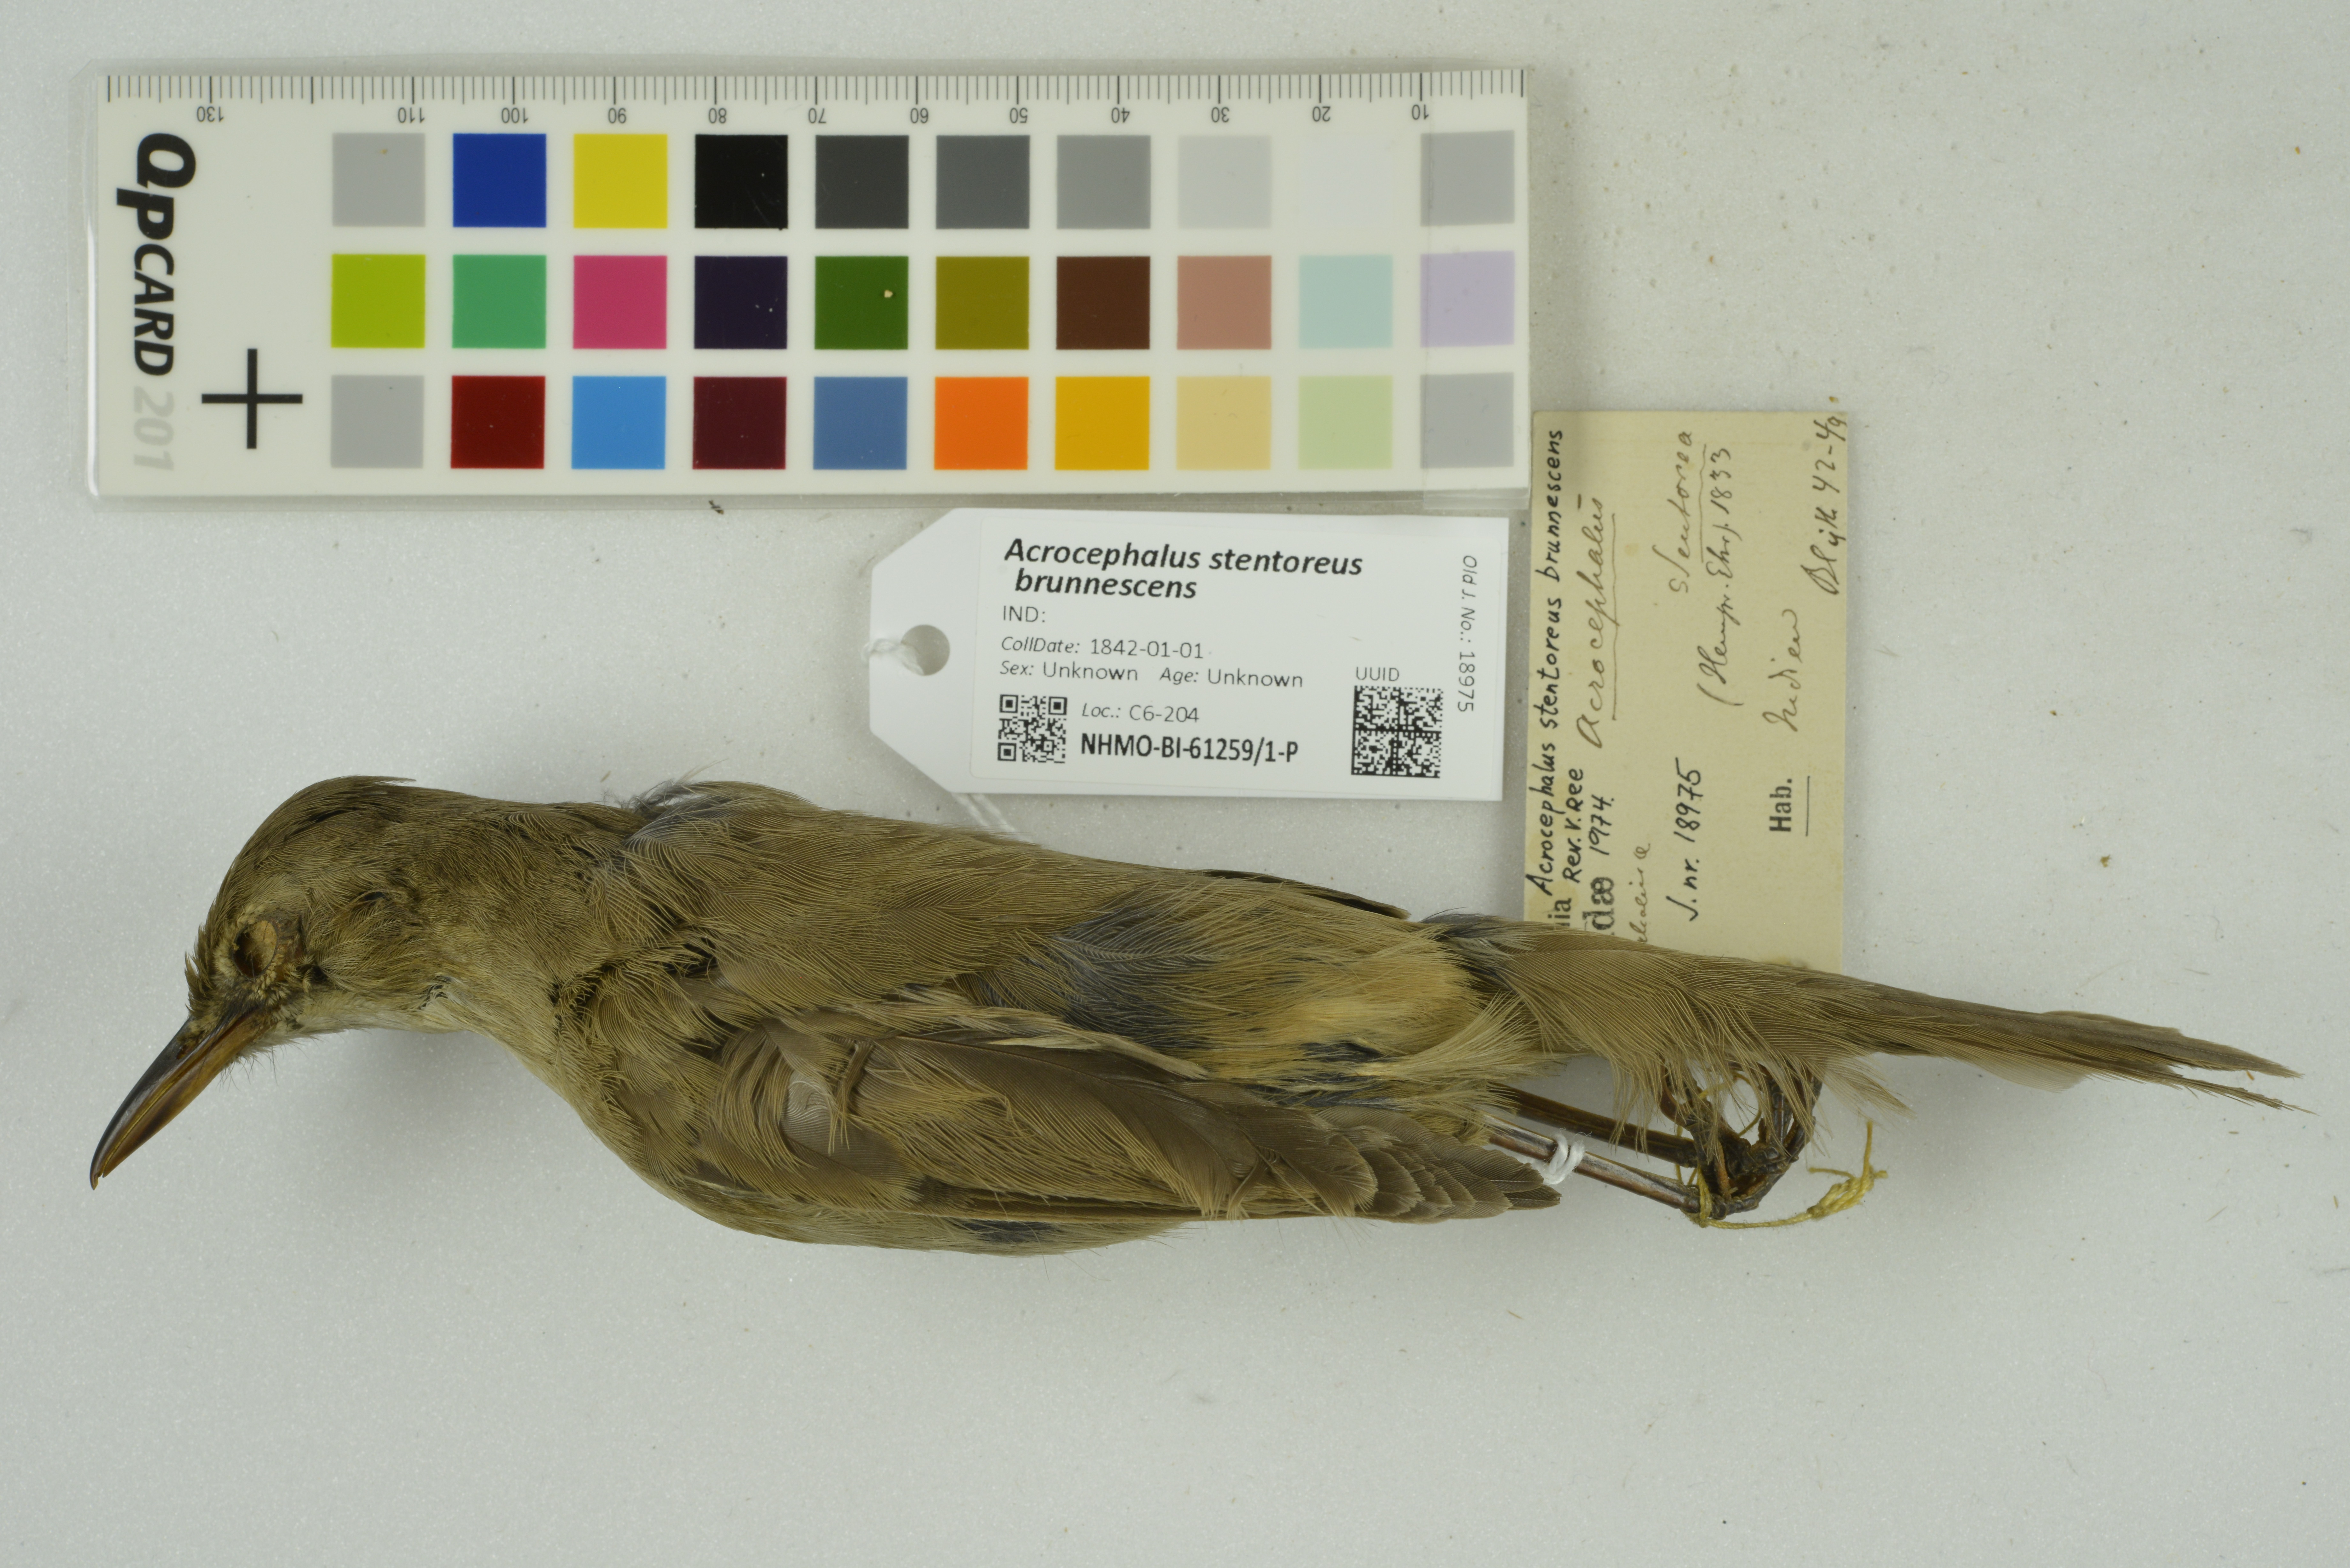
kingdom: Animalia
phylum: Chordata
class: Aves
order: Passeriformes
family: Acrocephalidae
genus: Acrocephalus
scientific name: Acrocephalus stentoreus
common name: Clamorous reed warbler
